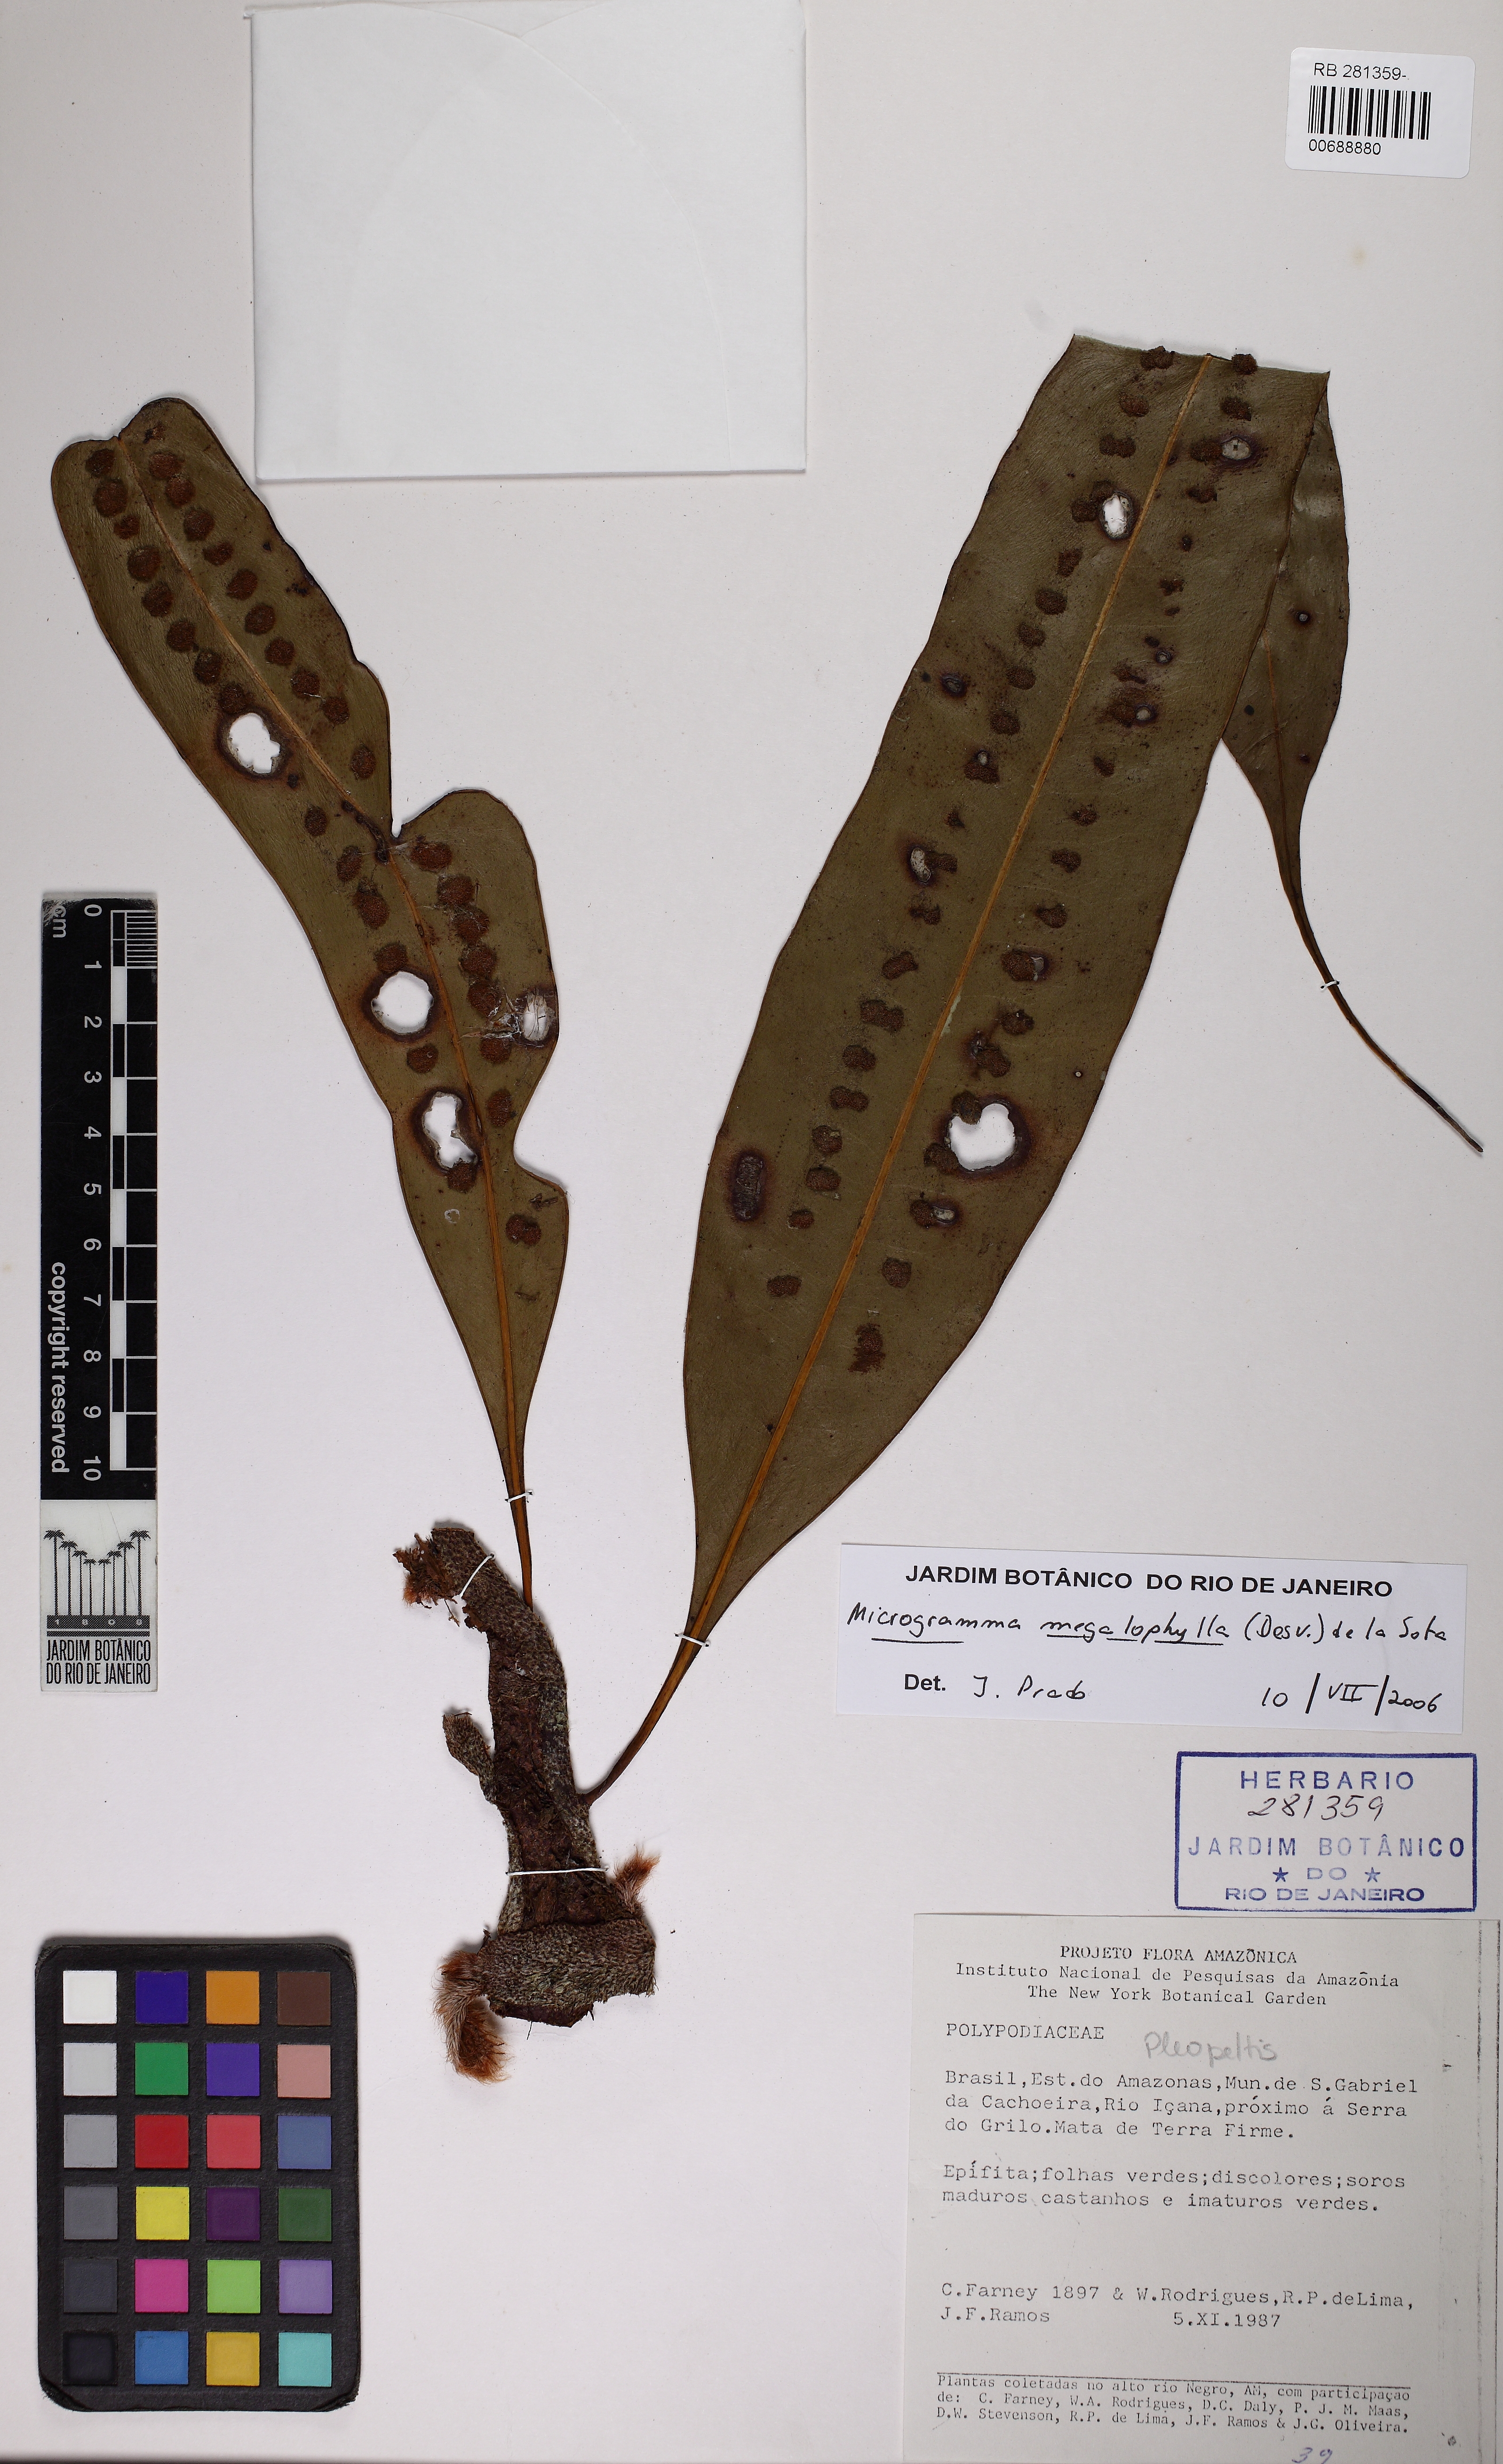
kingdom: Plantae
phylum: Tracheophyta
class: Polypodiopsida
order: Polypodiales
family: Polypodiaceae
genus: Microgramma
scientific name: Microgramma megalophylla
